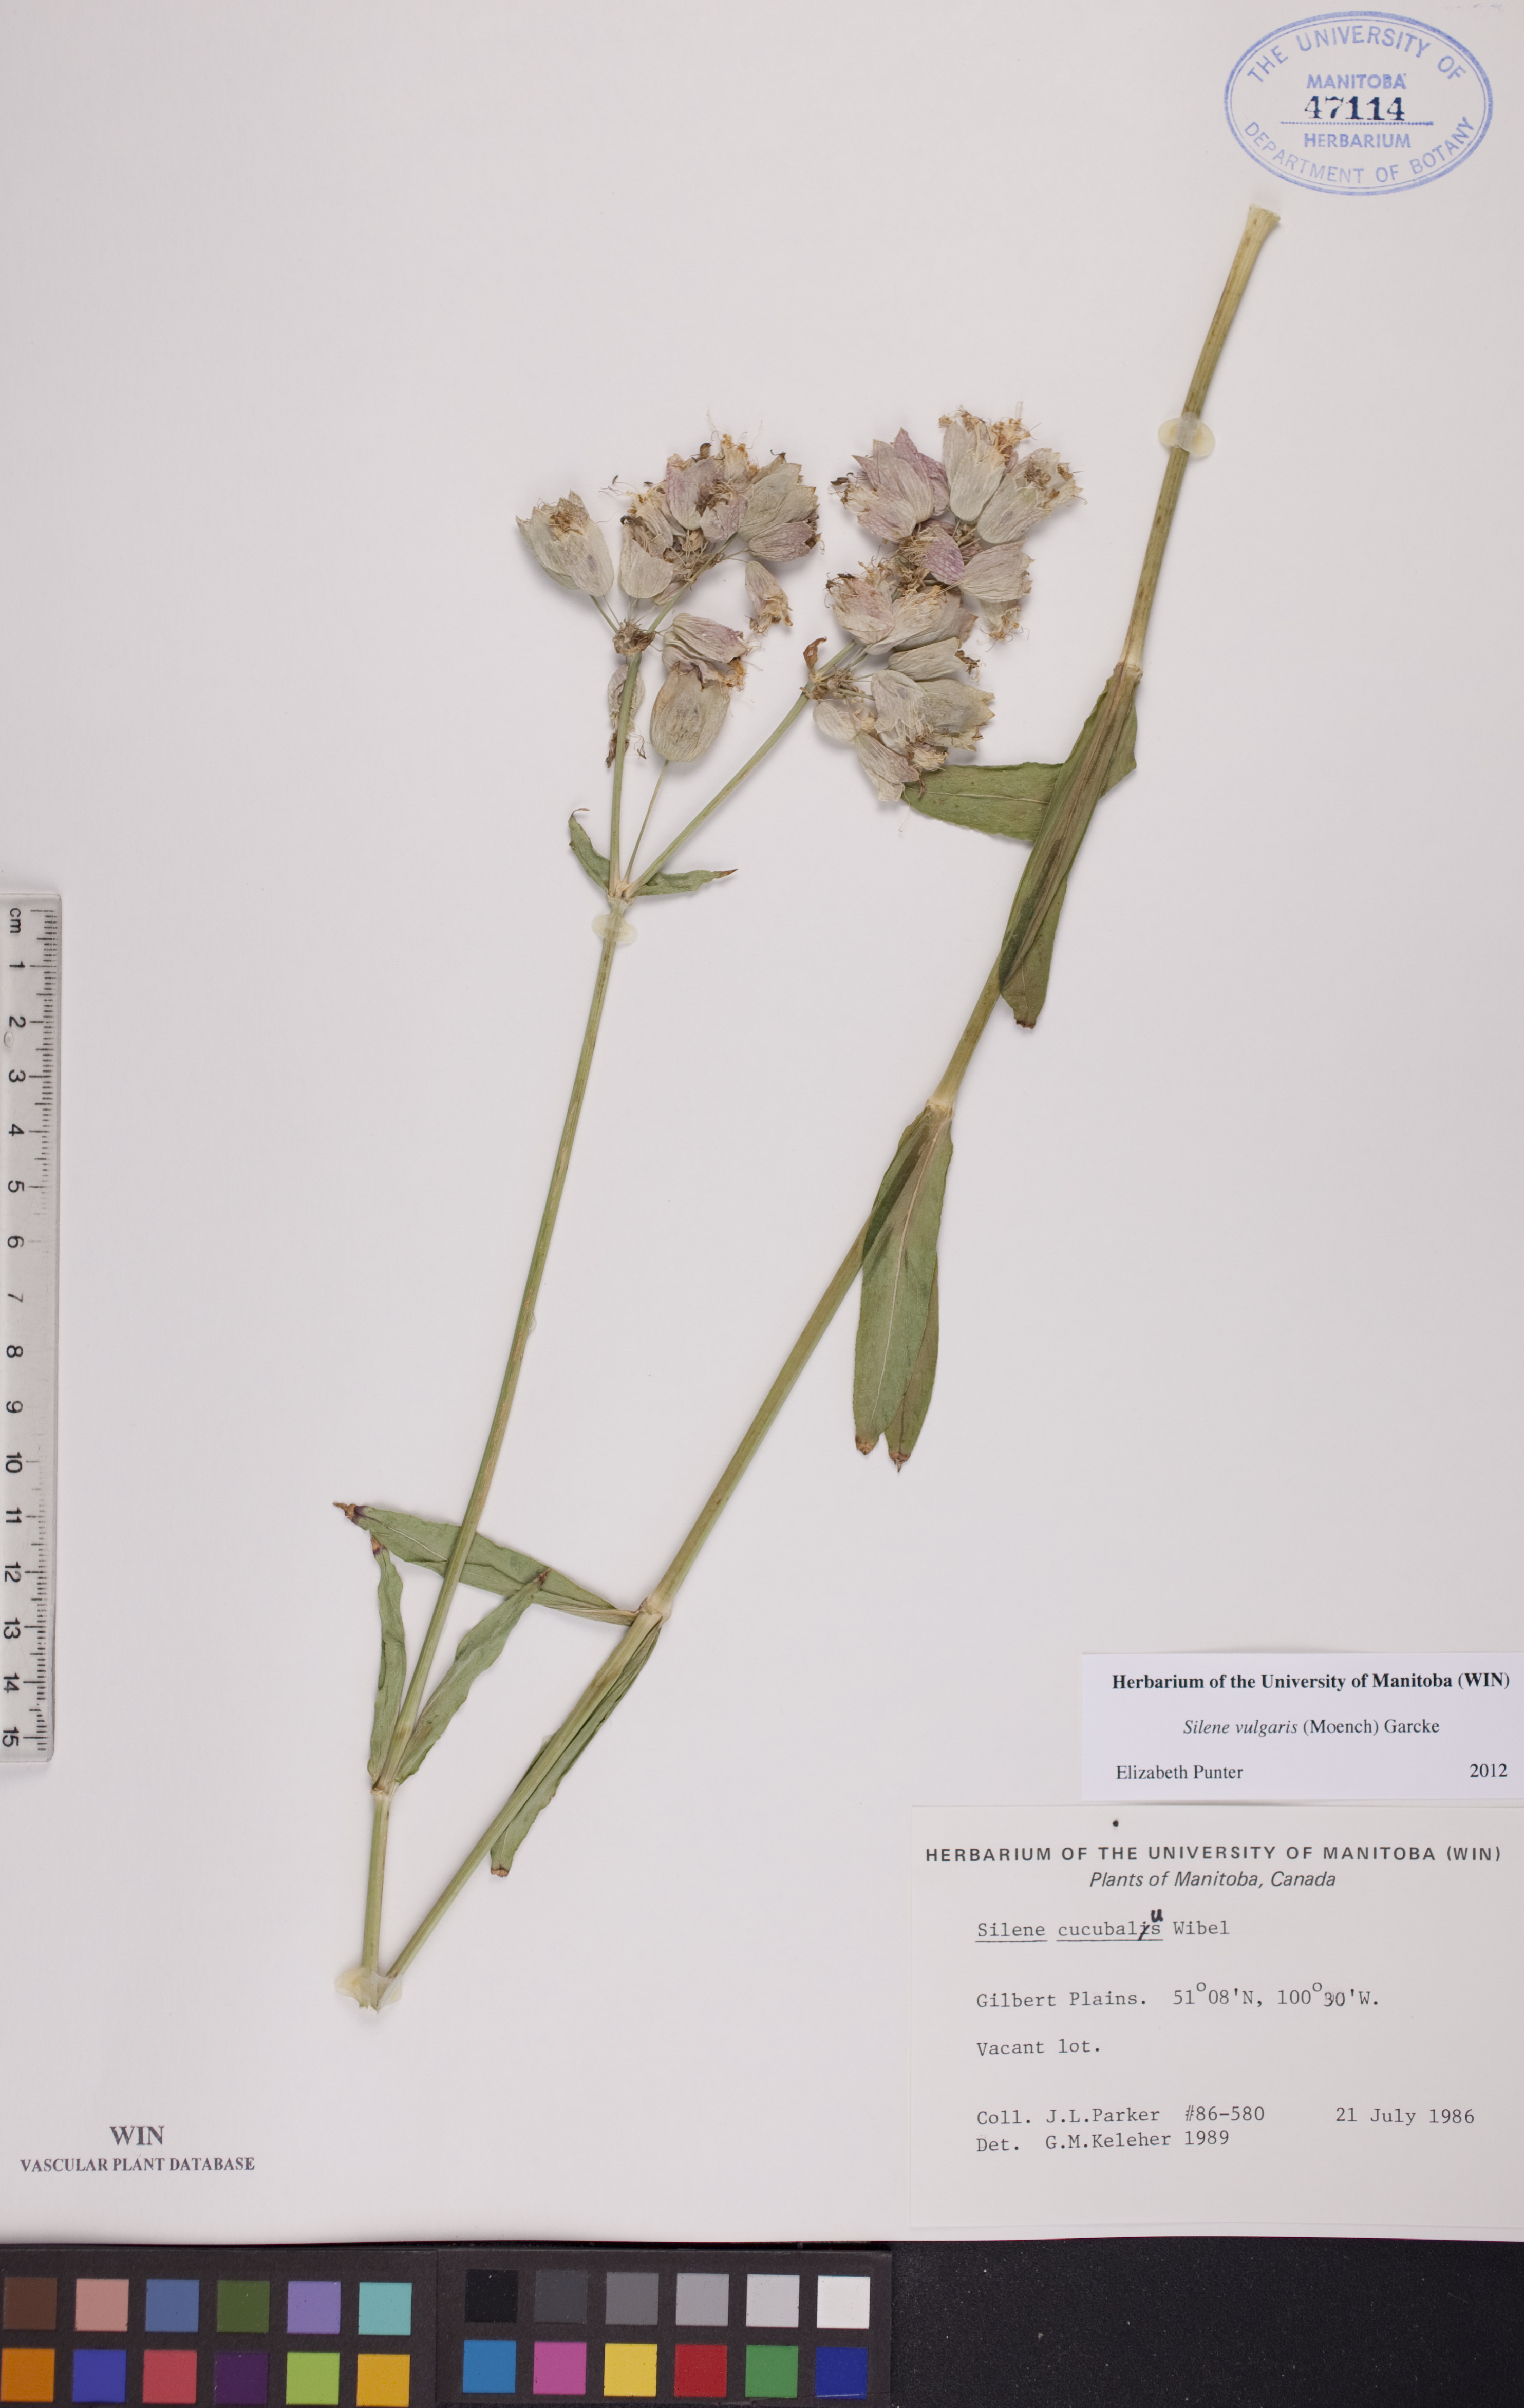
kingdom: Plantae
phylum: Tracheophyta
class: Magnoliopsida
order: Caryophyllales
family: Caryophyllaceae
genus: Silene
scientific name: Silene vulgaris
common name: Bladder campion
